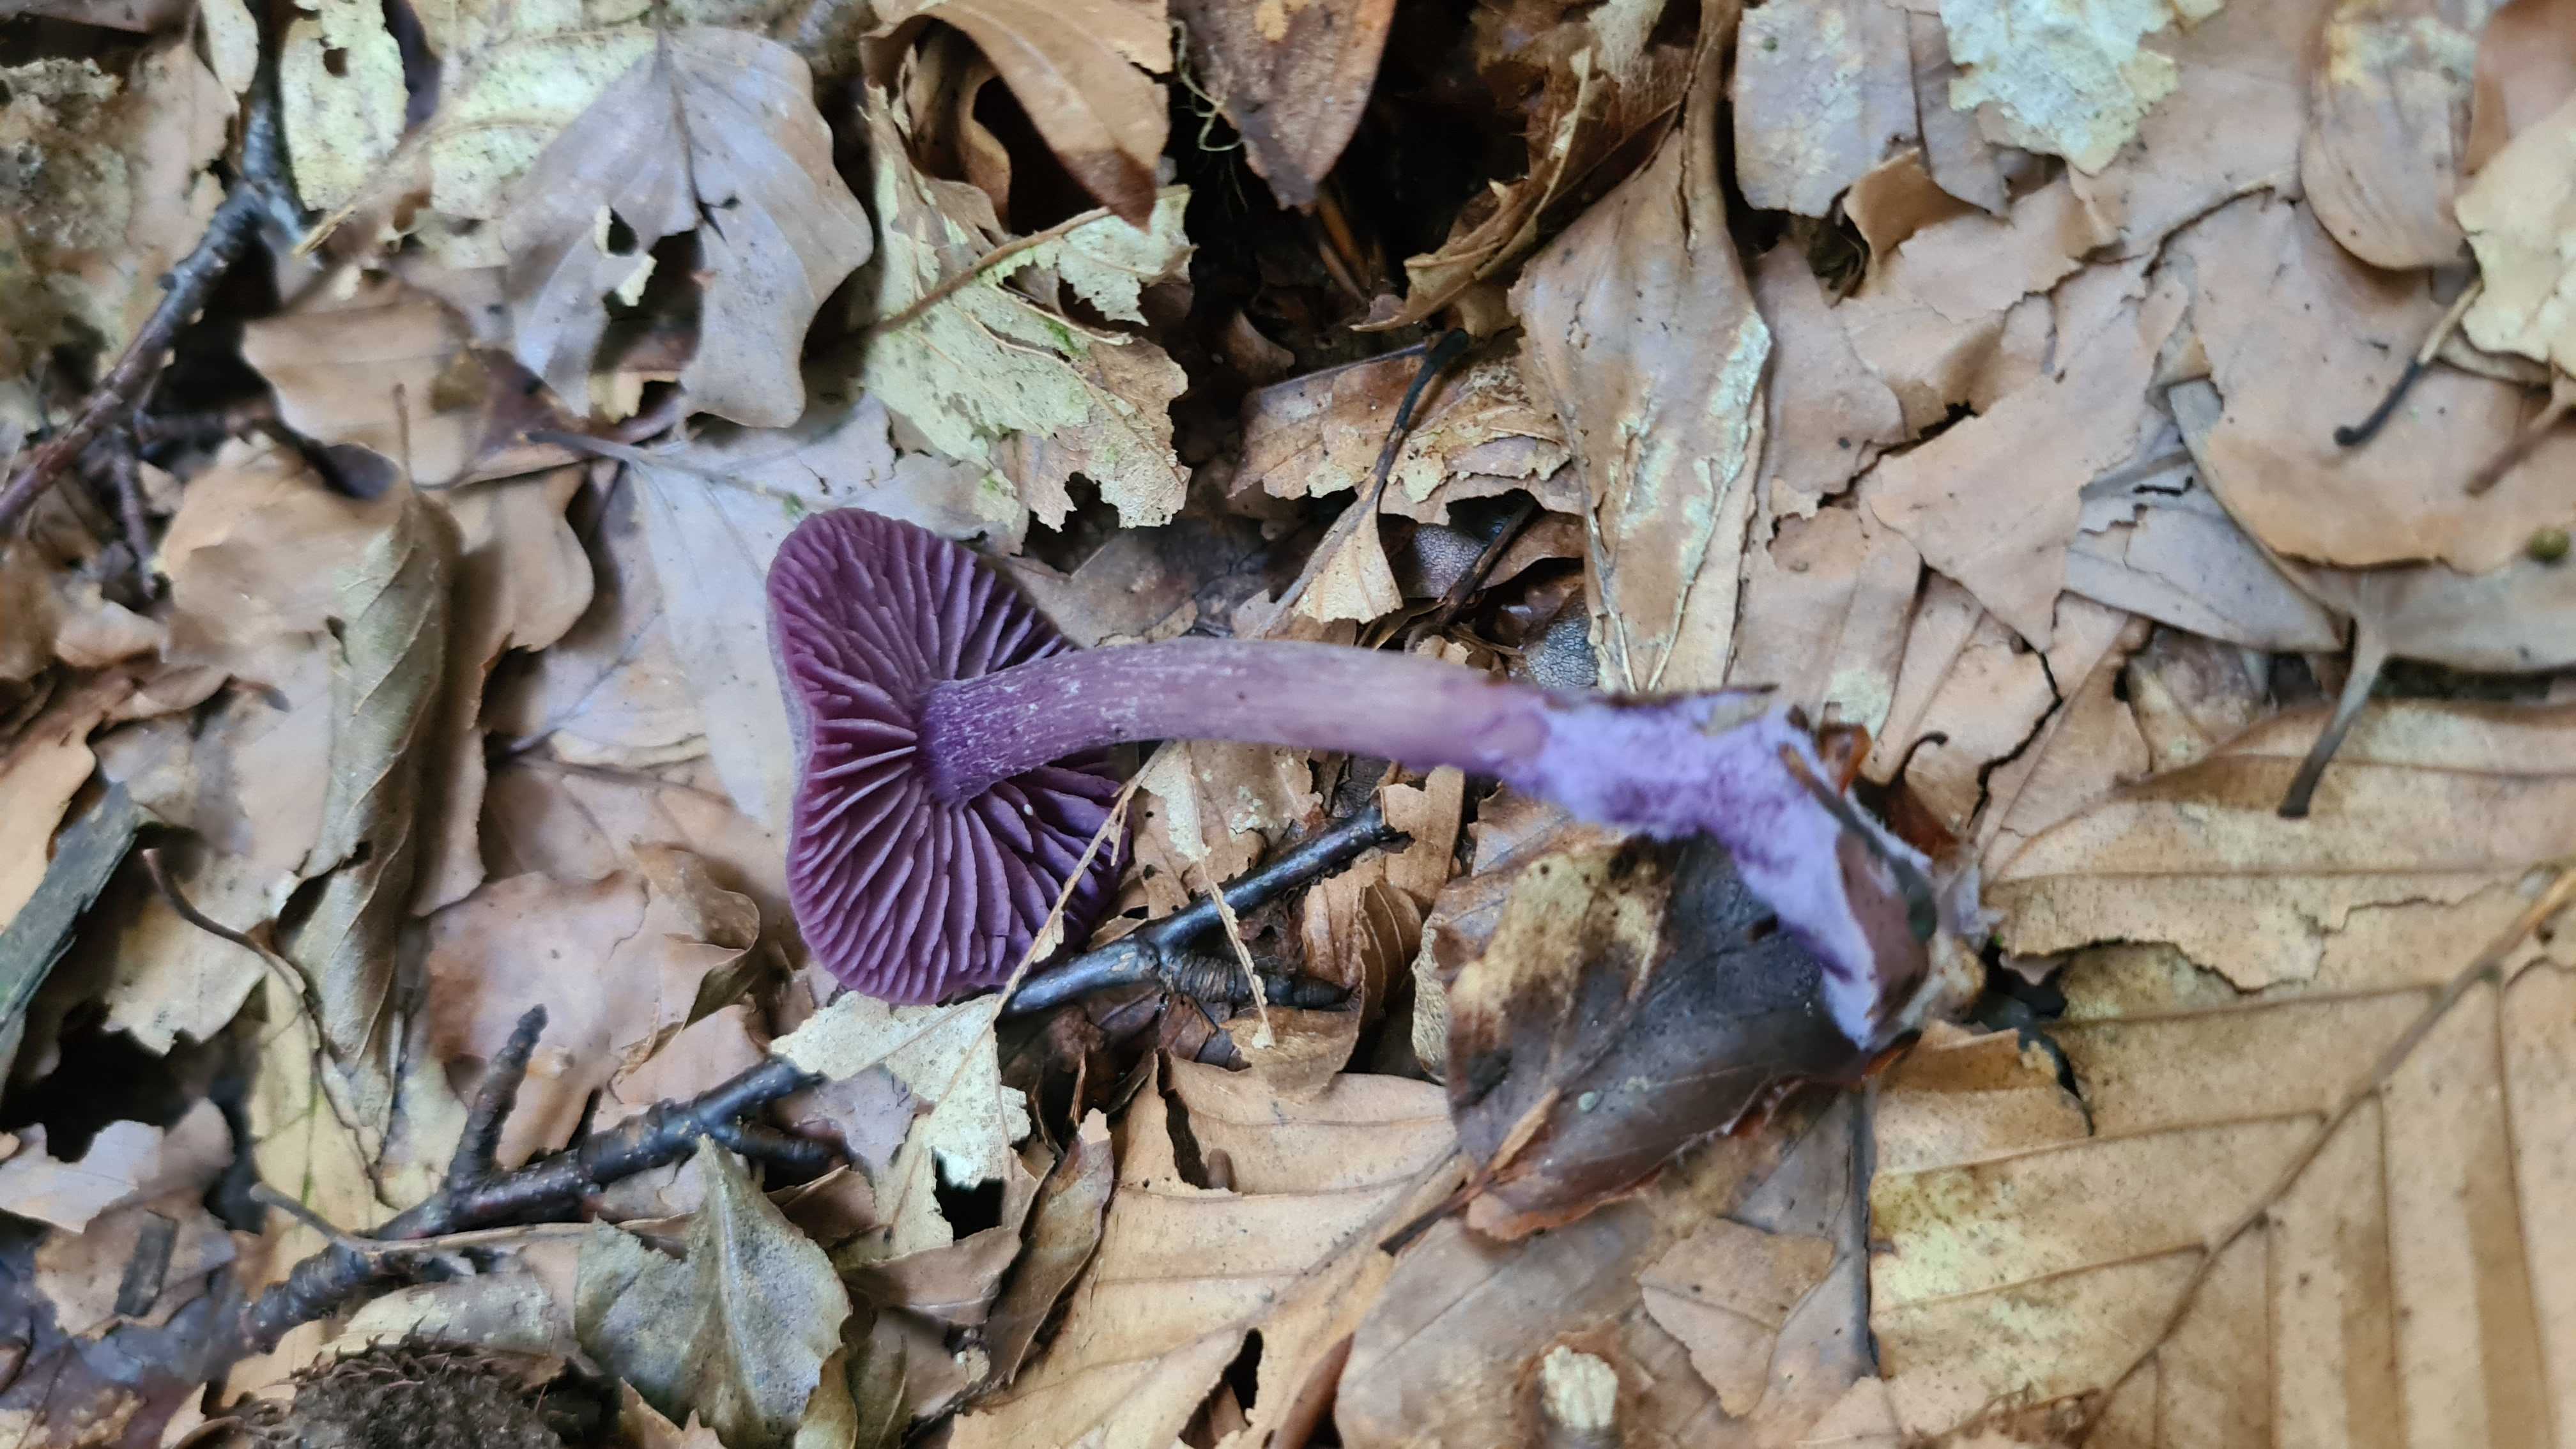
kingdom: Fungi
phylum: Basidiomycota
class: Agaricomycetes
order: Agaricales
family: Hydnangiaceae
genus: Laccaria
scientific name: Laccaria amethystina
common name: violet ametysthat
